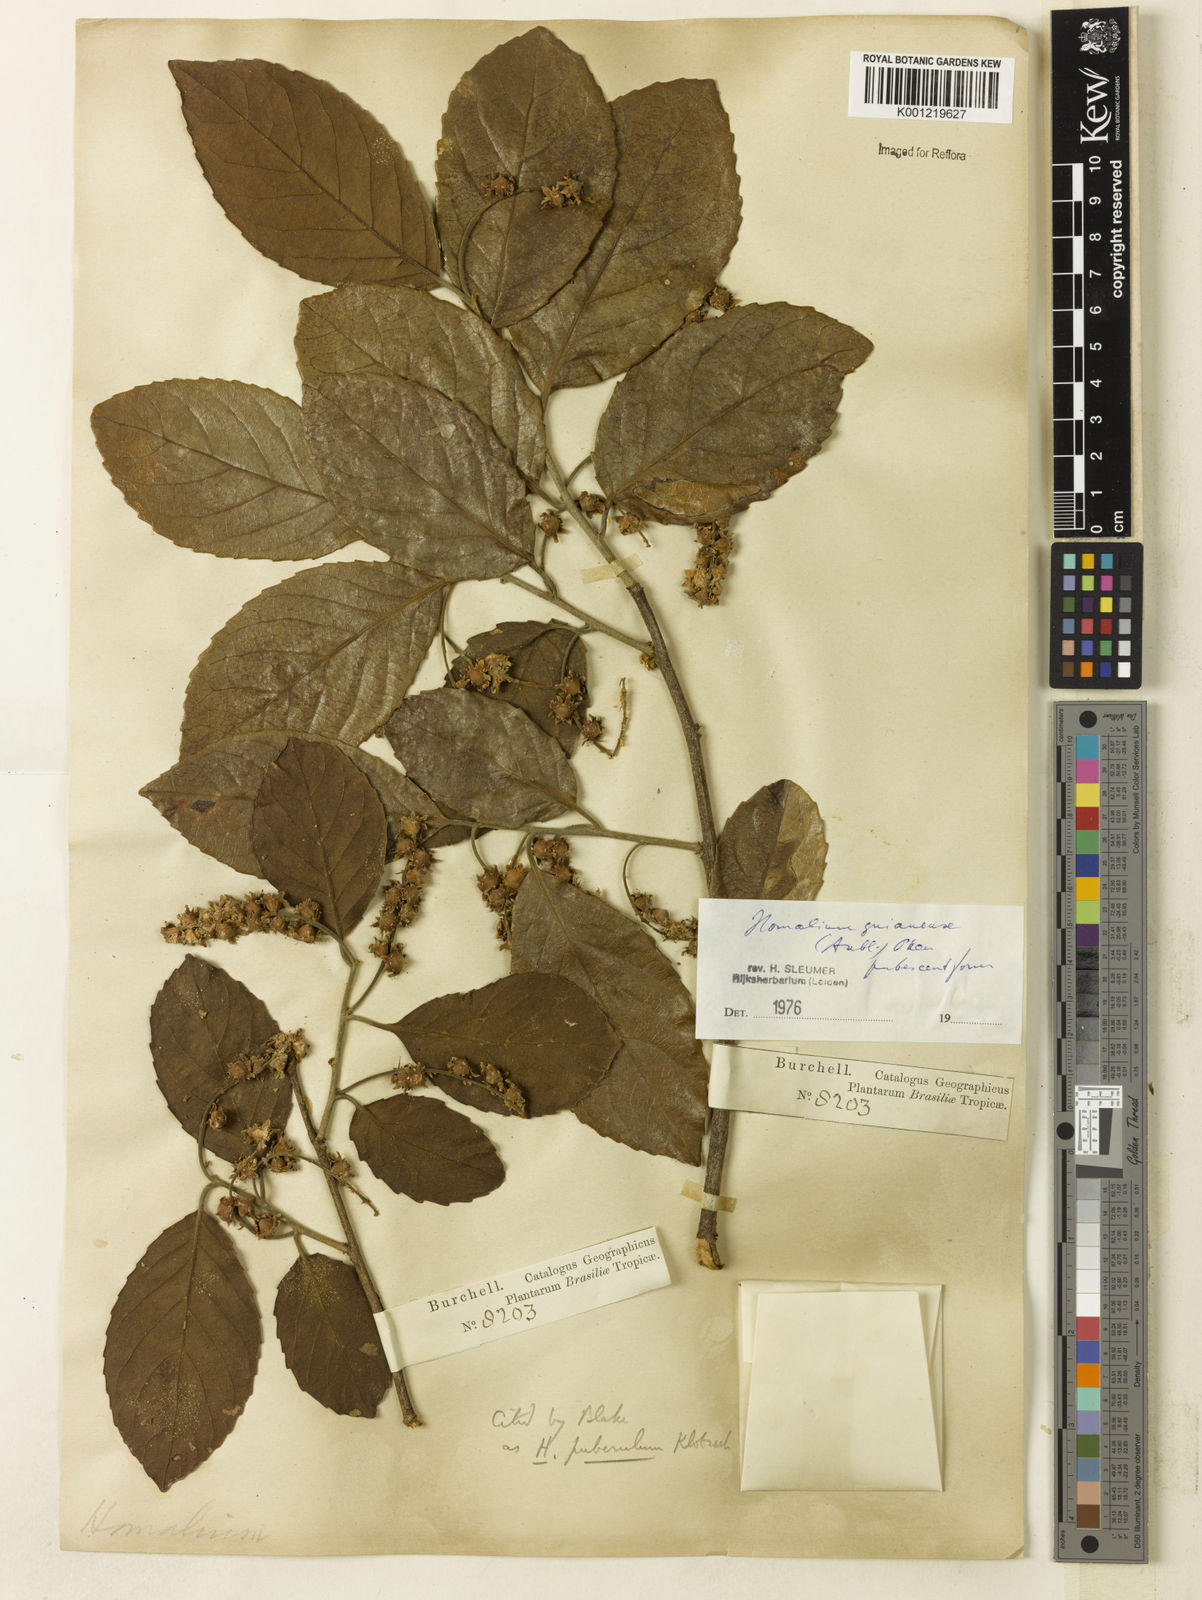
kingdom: Plantae
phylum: Tracheophyta
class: Magnoliopsida
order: Malpighiales
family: Salicaceae
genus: Homalium
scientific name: Homalium guianense
